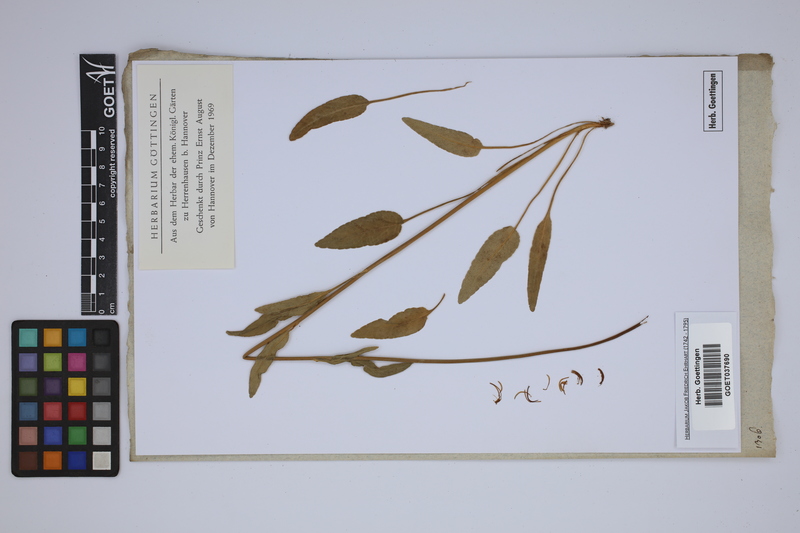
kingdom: Plantae
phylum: Tracheophyta
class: Magnoliopsida
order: Asterales
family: Campanulaceae
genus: Phyteuma
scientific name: Phyteuma
